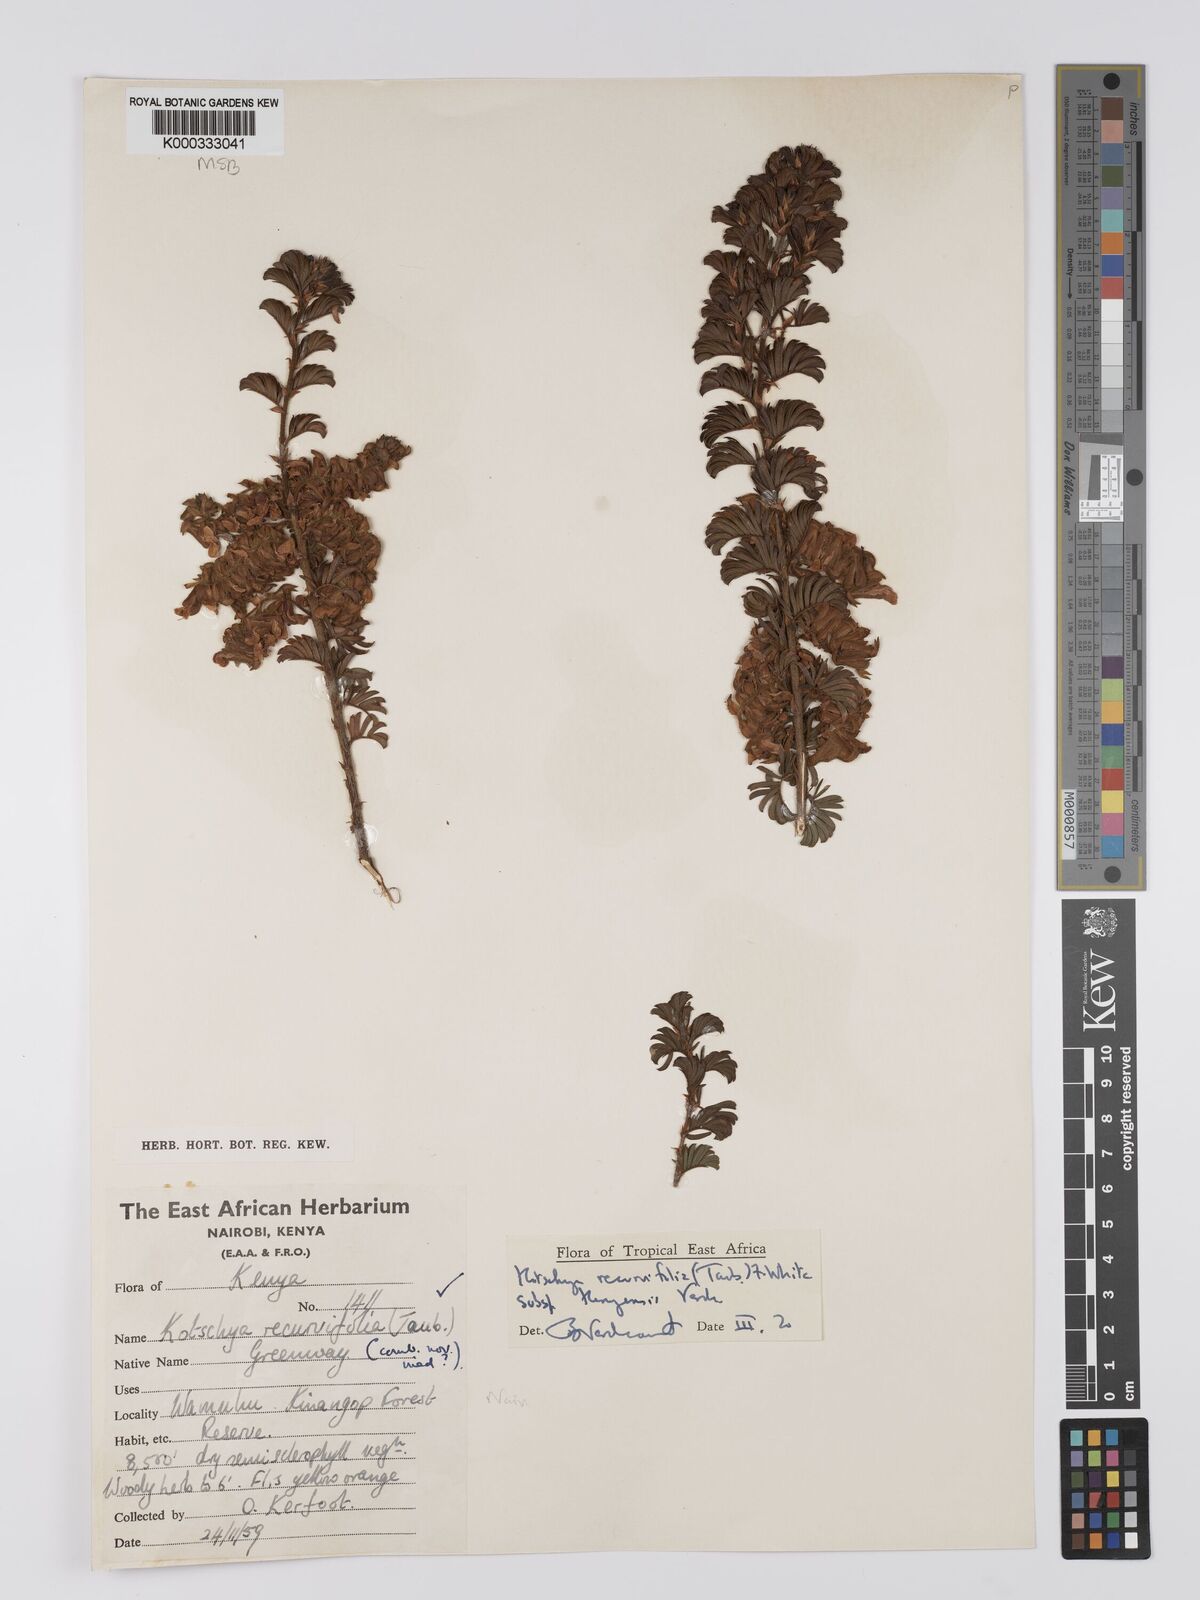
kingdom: Plantae
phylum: Tracheophyta
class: Magnoliopsida
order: Fabales
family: Fabaceae
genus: Kotschya
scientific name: Kotschya recurvifolia
